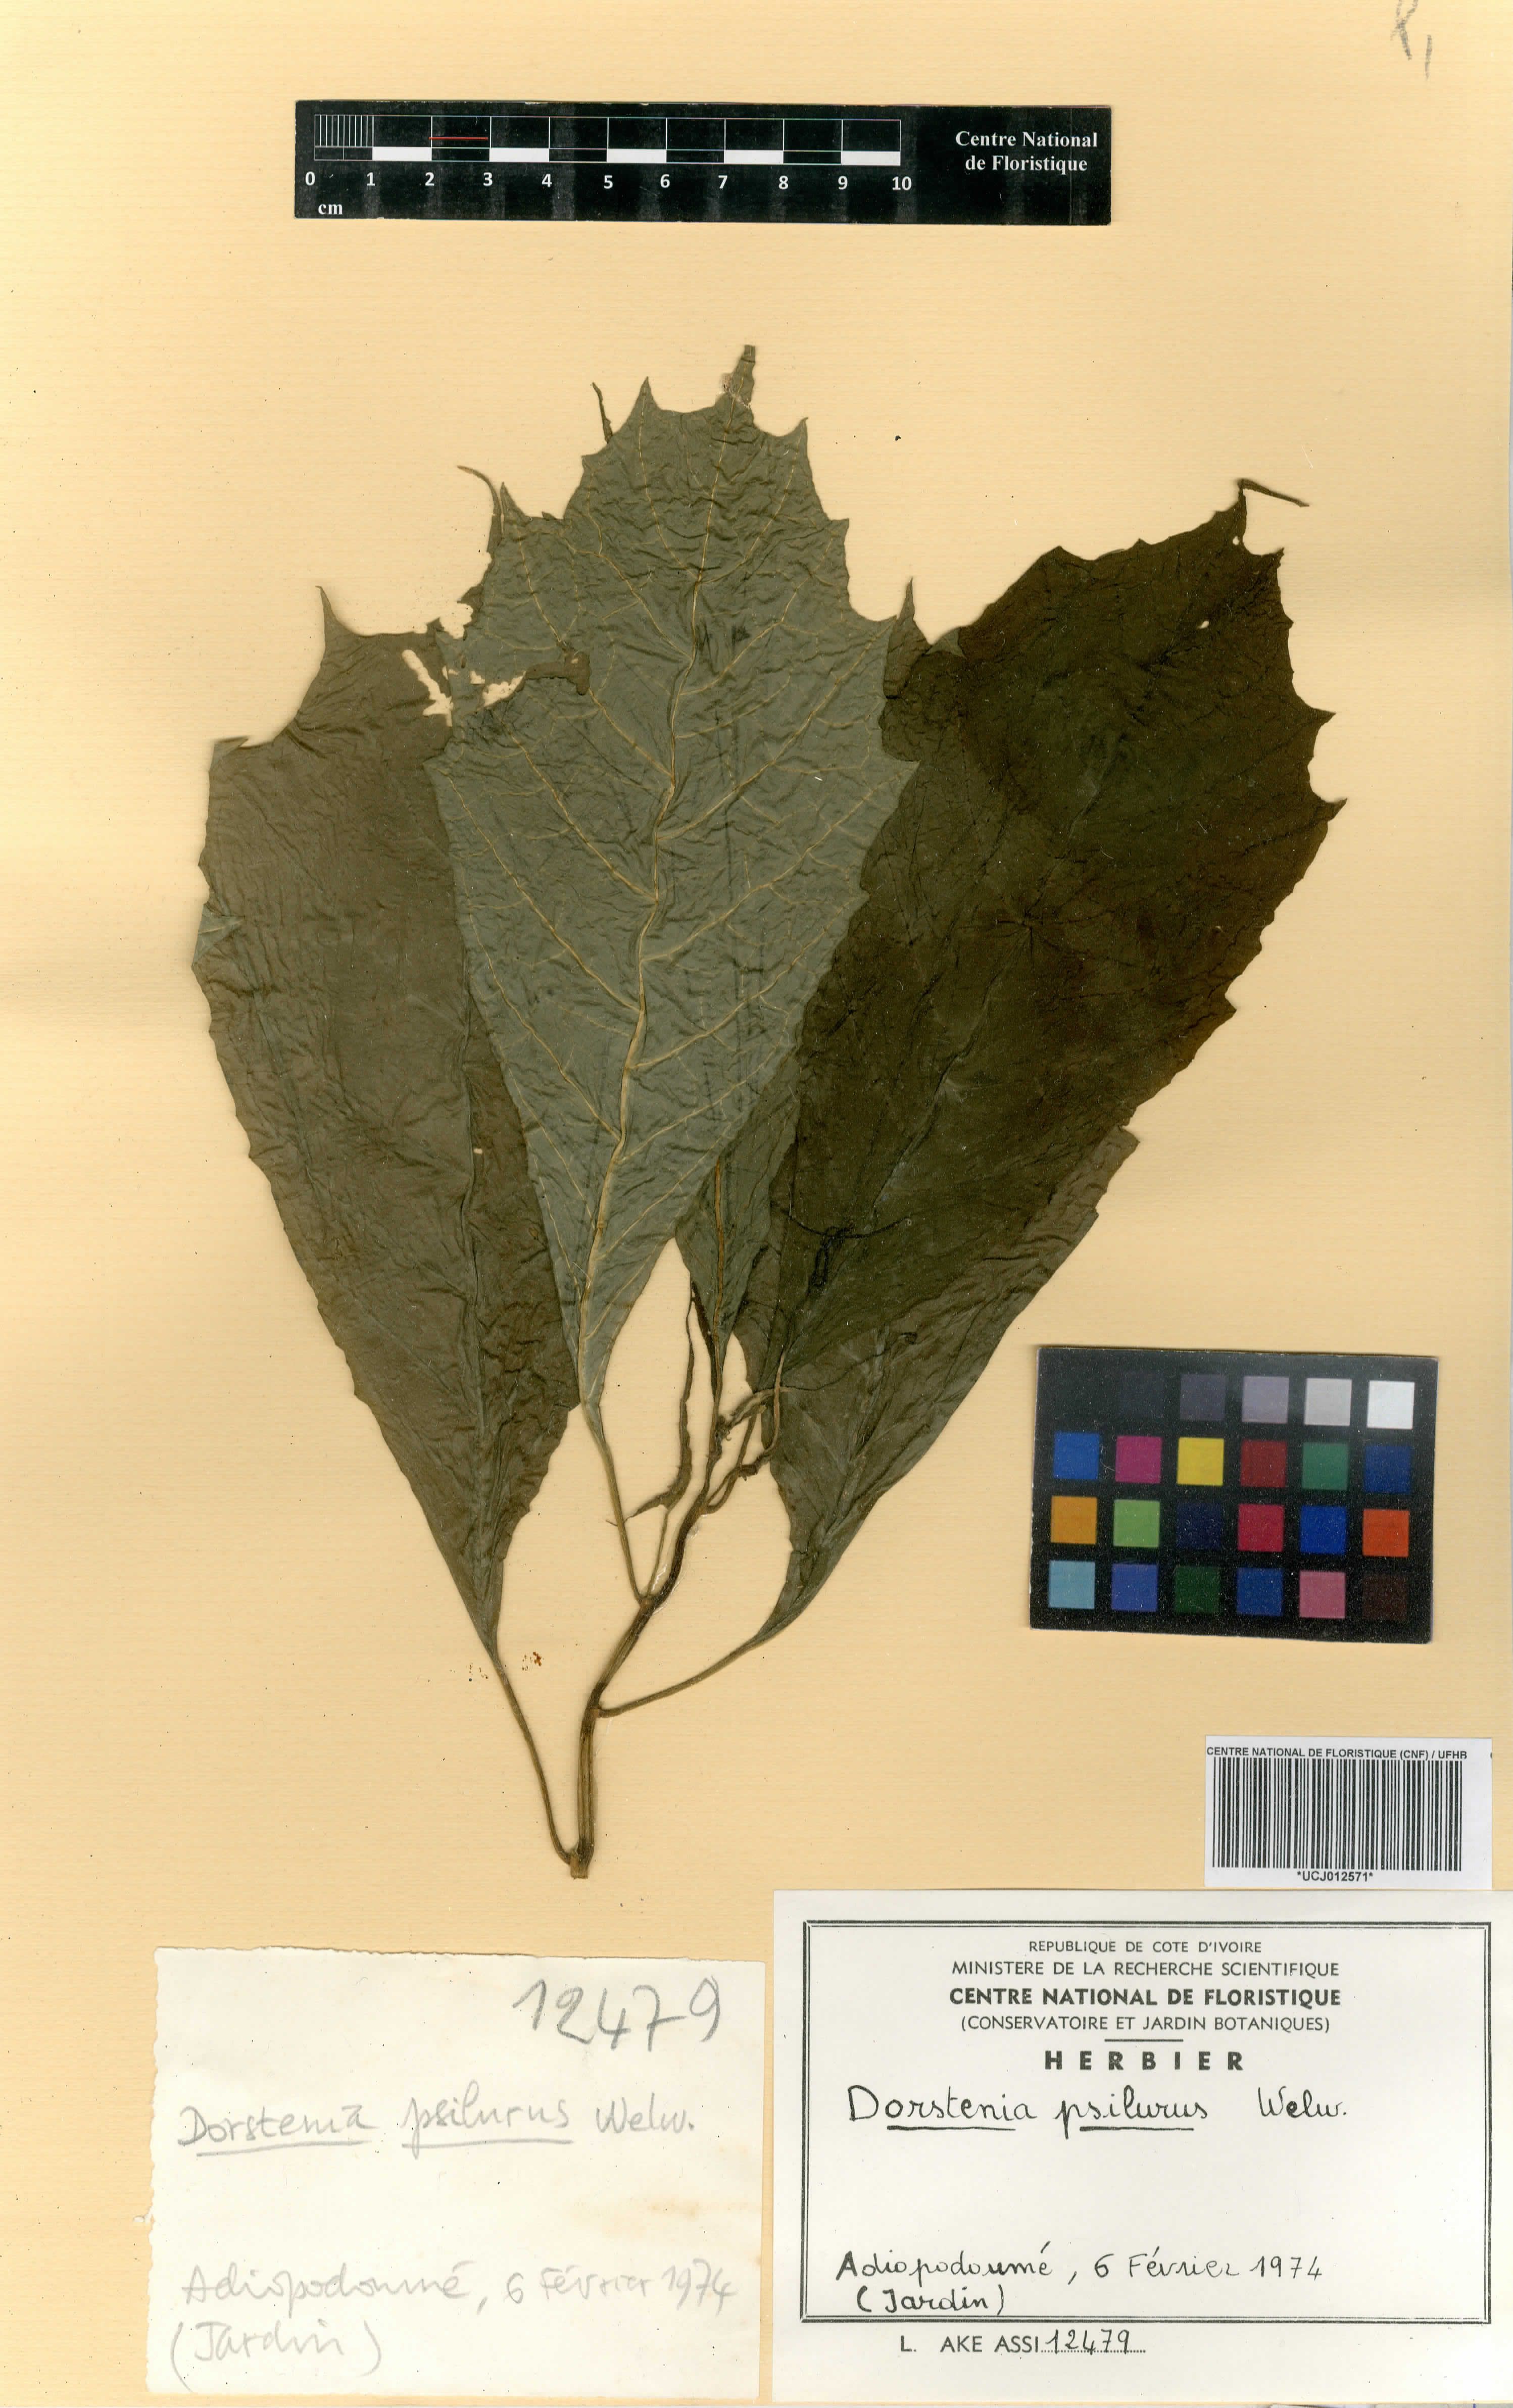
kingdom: Plantae
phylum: Tracheophyta
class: Magnoliopsida
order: Rosales
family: Moraceae
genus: Dorstenia
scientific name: Dorstenia psilurus
